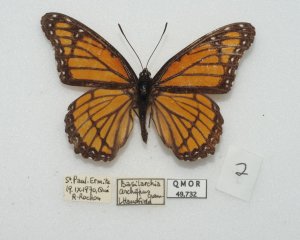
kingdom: Animalia
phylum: Arthropoda
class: Insecta
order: Lepidoptera
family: Nymphalidae
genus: Limenitis
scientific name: Limenitis archippus
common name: Viceroy
